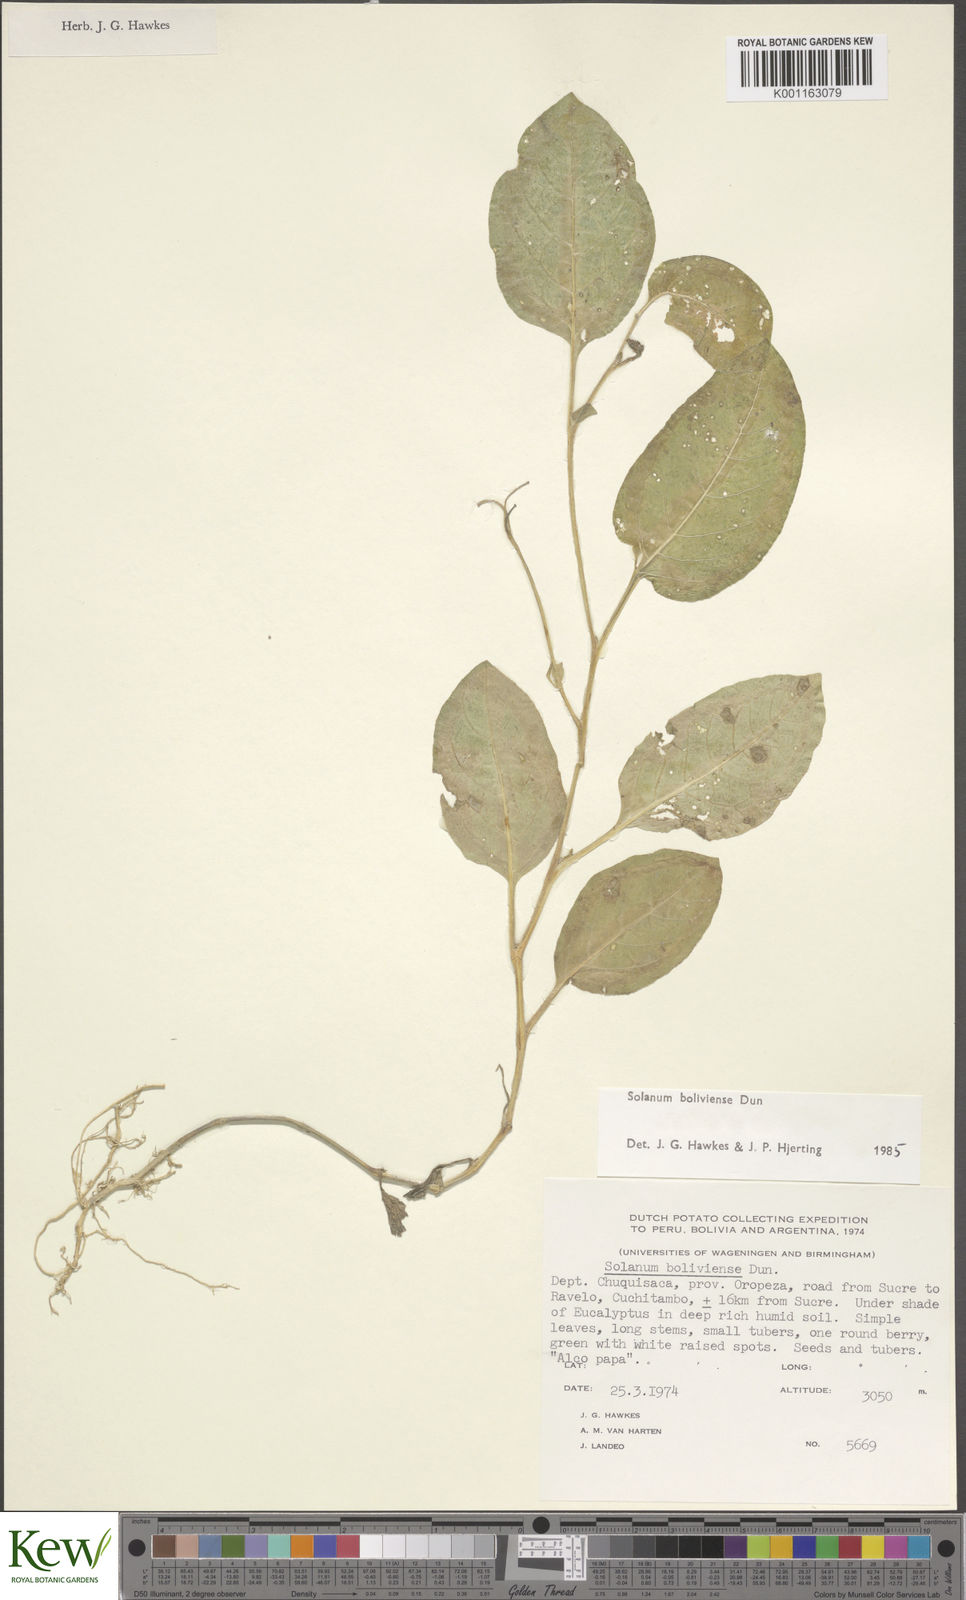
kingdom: Plantae
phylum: Tracheophyta
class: Magnoliopsida
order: Solanales
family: Solanaceae
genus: Solanum
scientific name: Solanum boliviense
